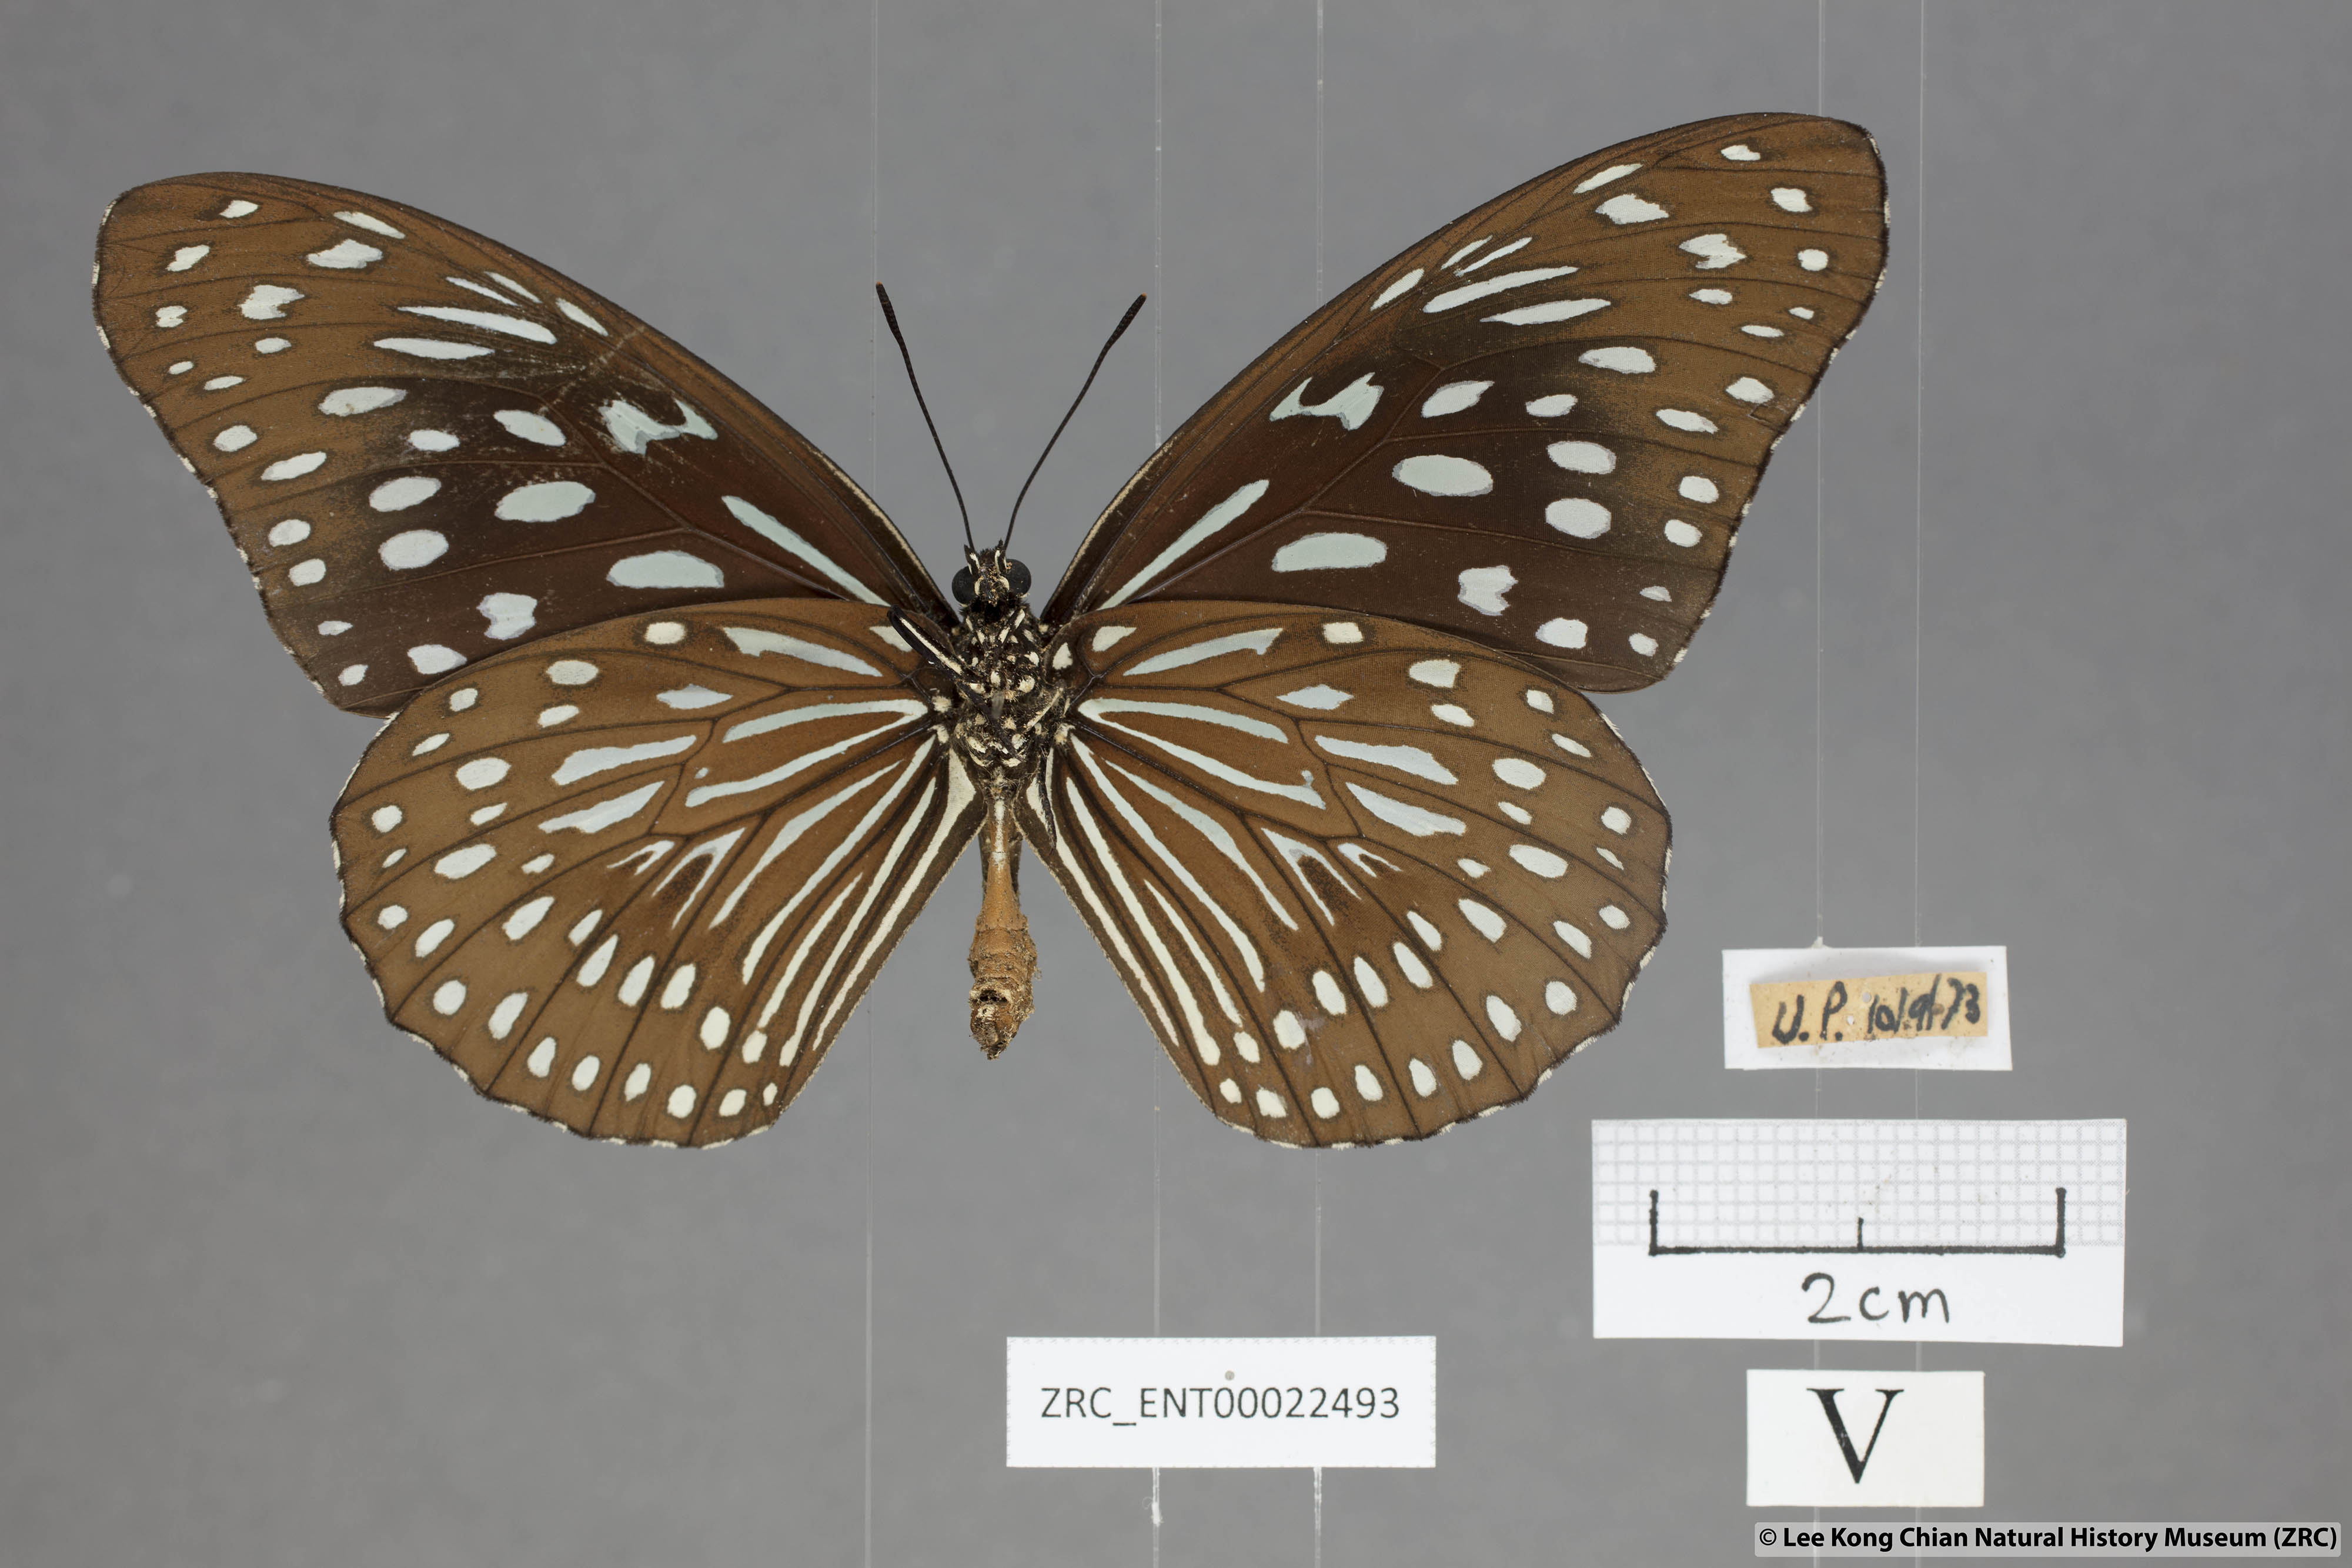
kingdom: Animalia
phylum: Arthropoda
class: Insecta
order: Lepidoptera
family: Nymphalidae
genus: Tirumala
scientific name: Tirumala septentrionis
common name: Dark blue tiger butterfly
